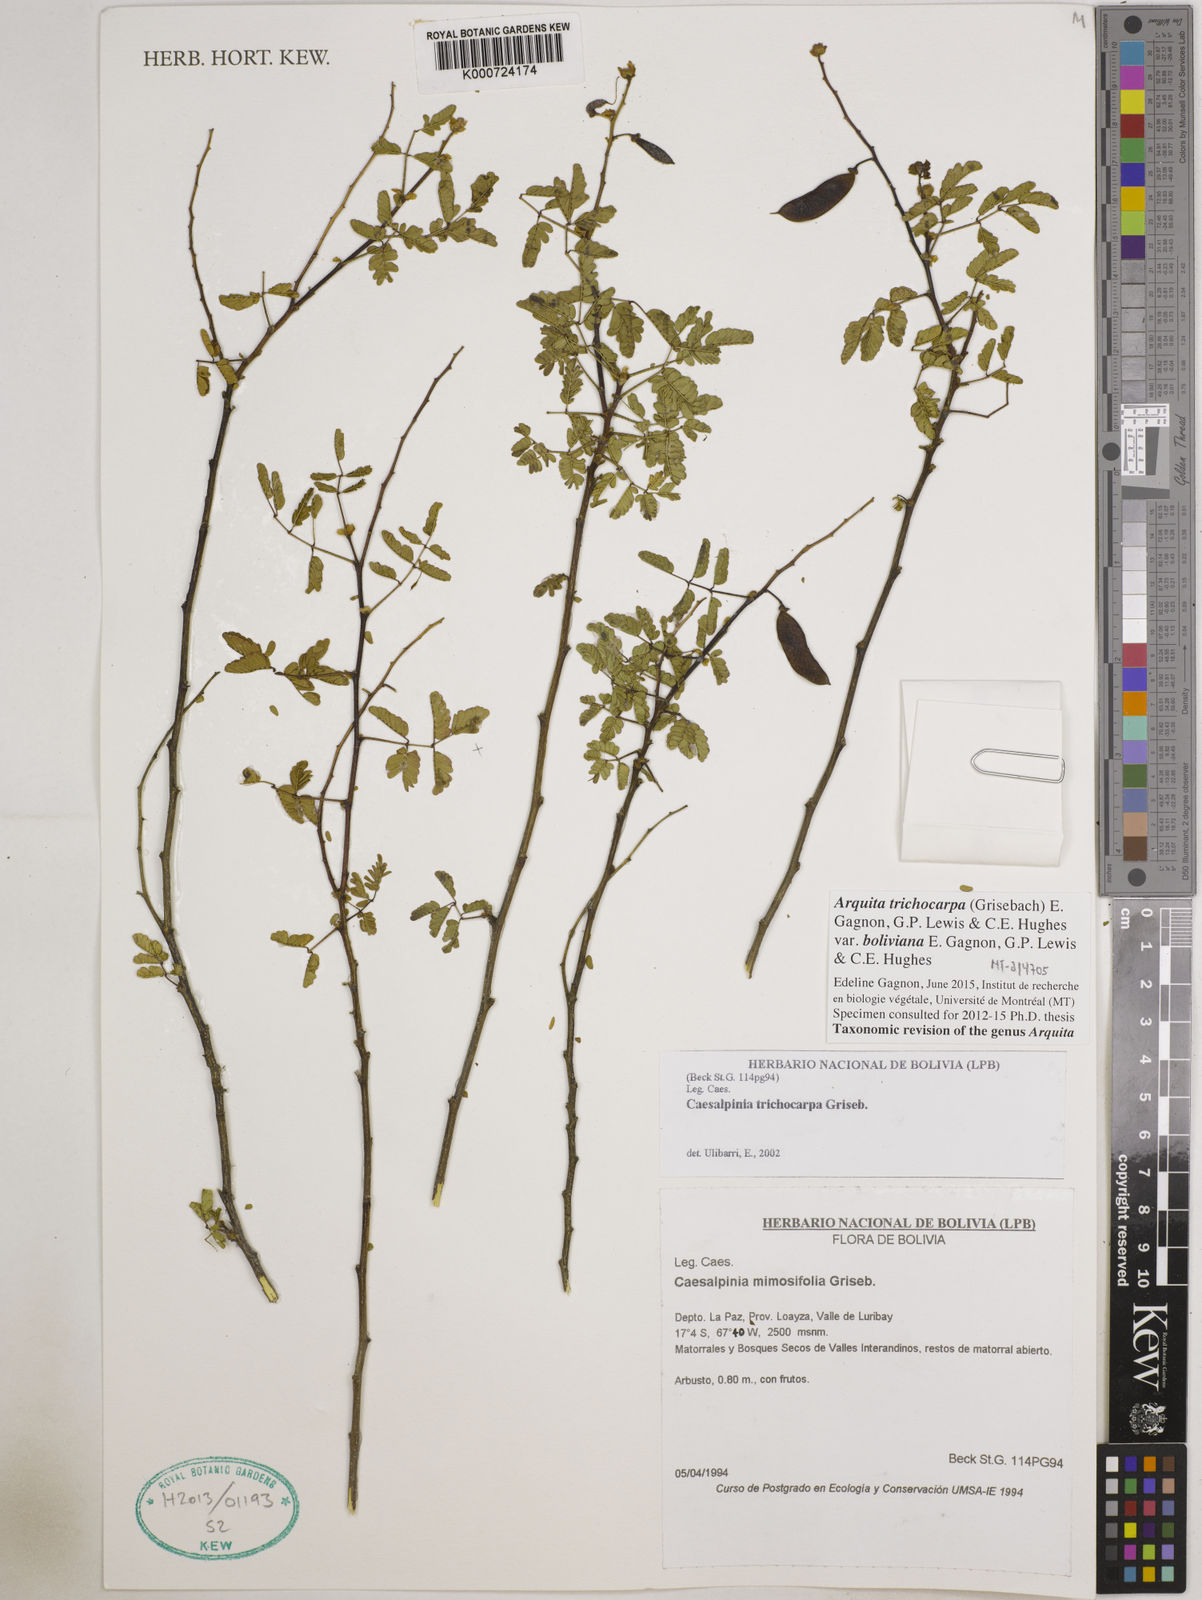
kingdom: Plantae
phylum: Tracheophyta
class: Magnoliopsida
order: Fabales
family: Fabaceae
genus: Arquita
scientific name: Arquita trichocarpa
